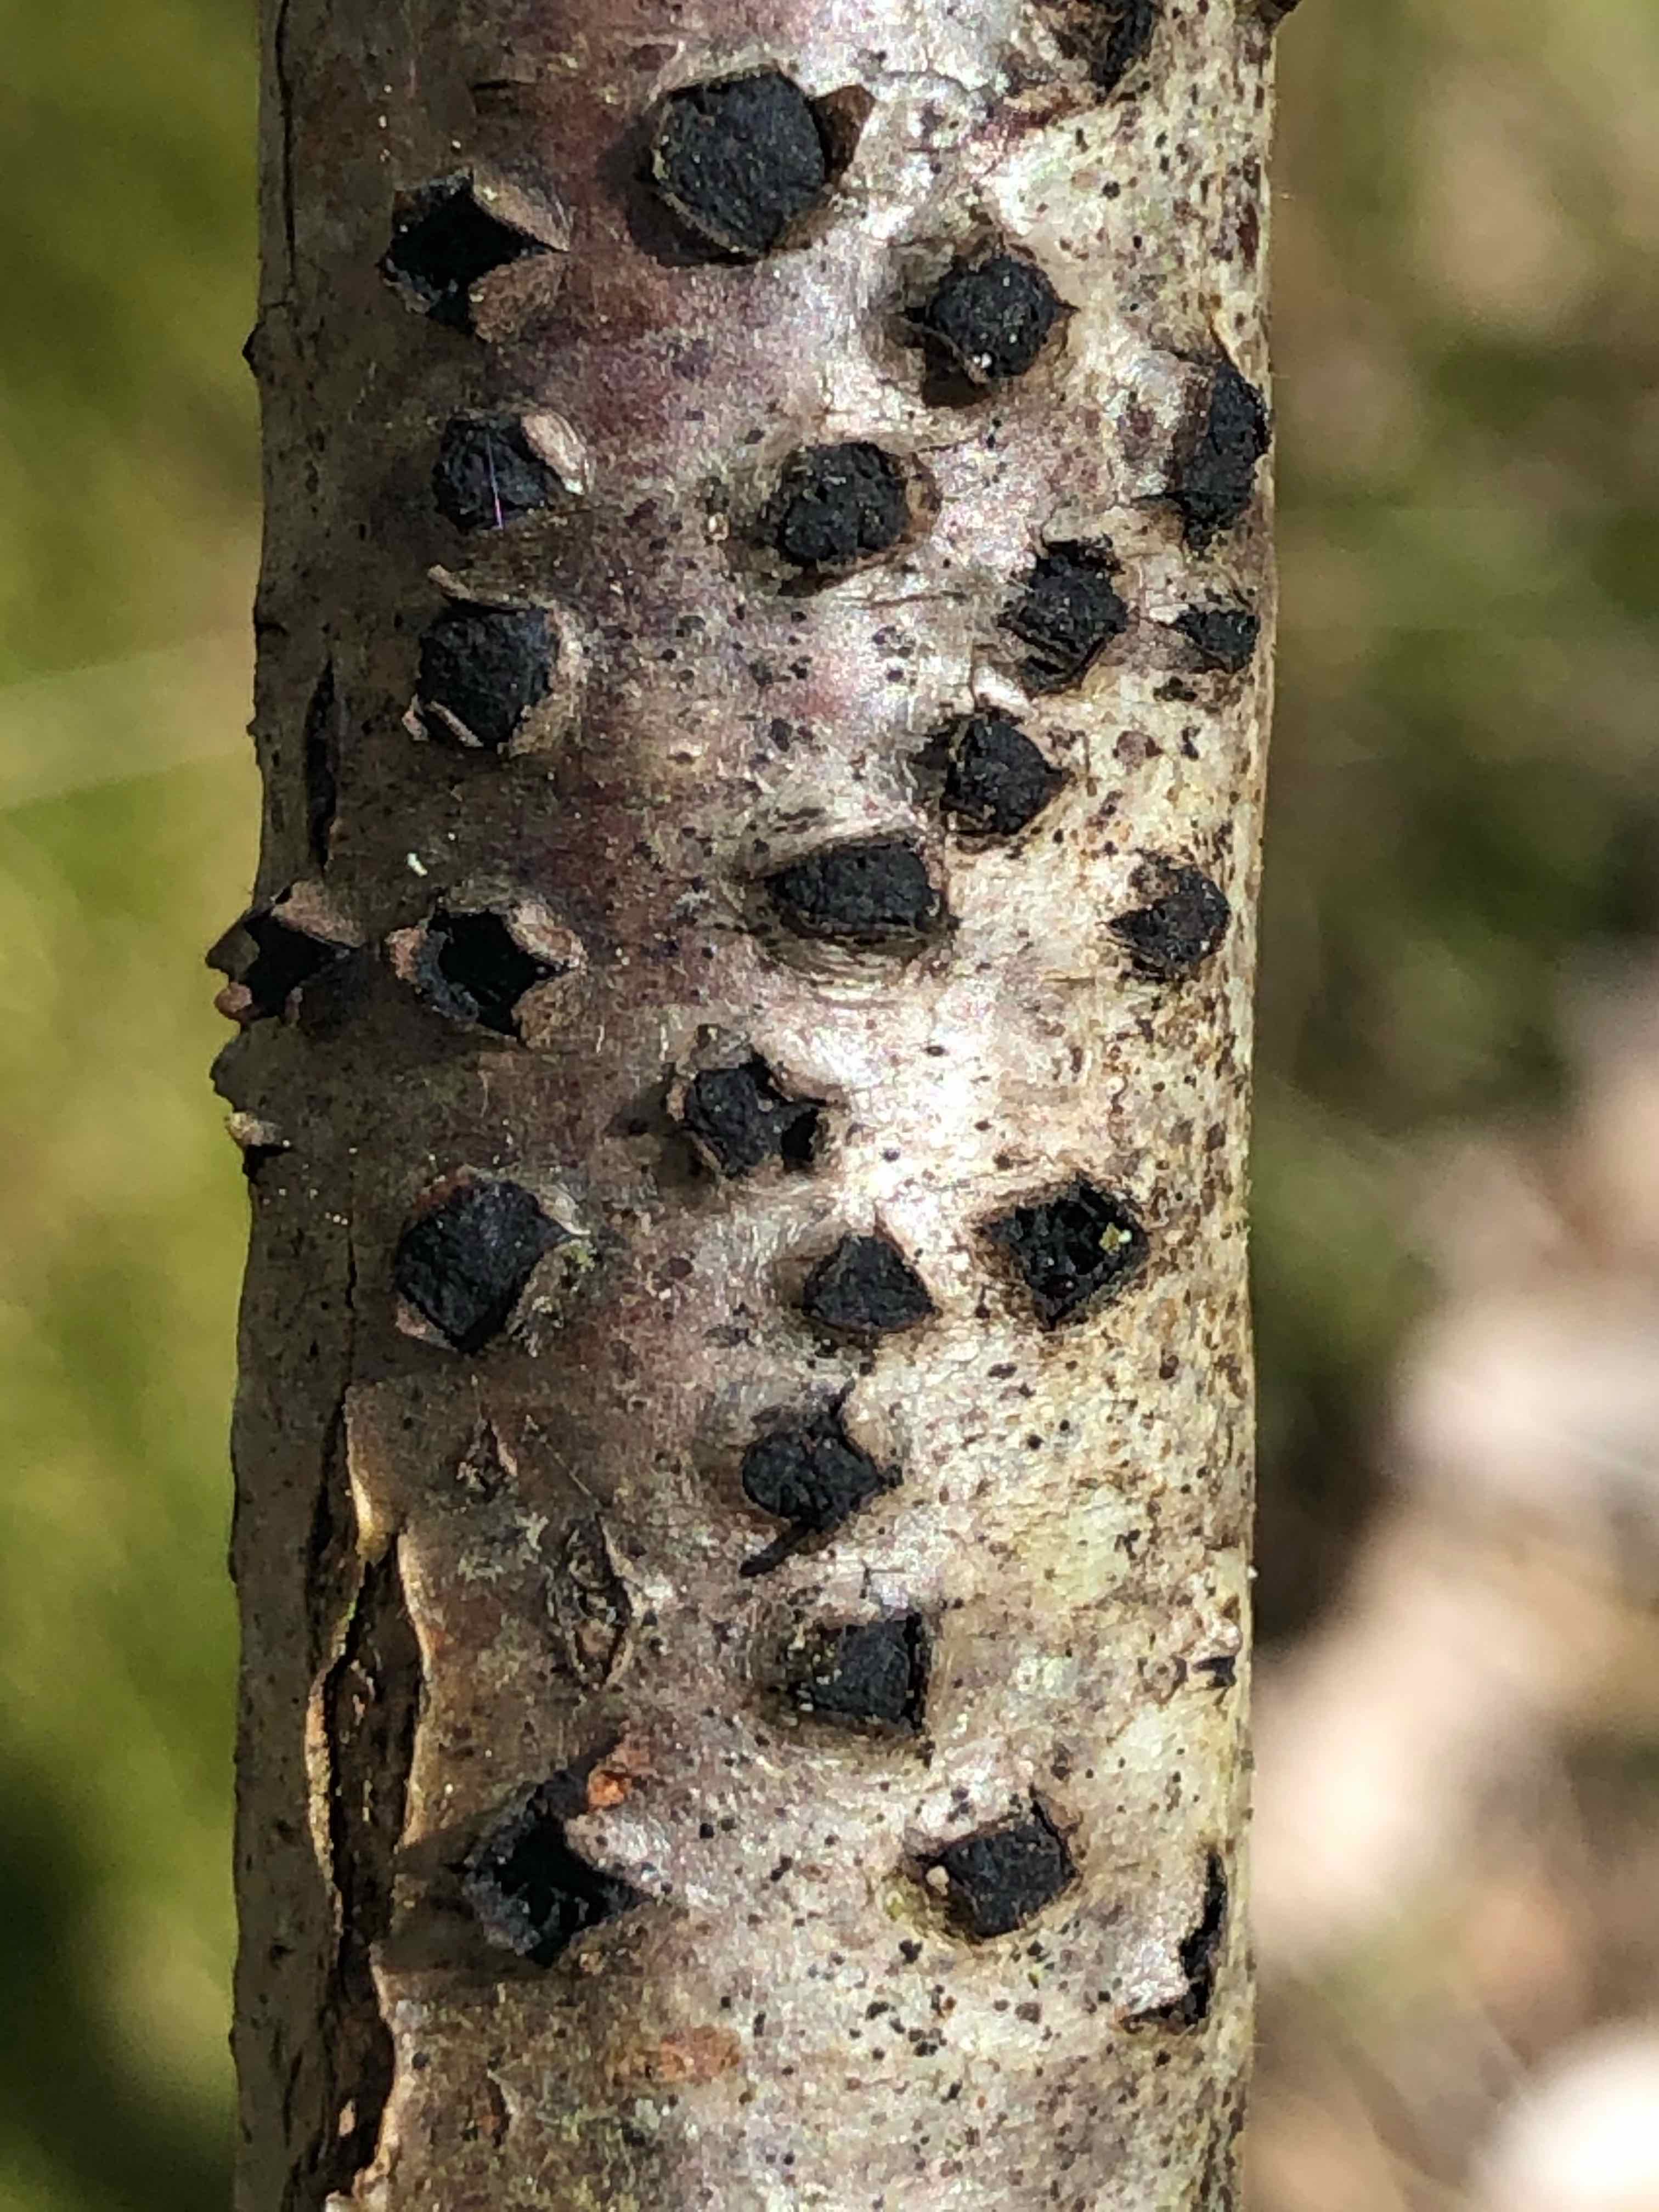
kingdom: Fungi
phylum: Ascomycota
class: Sordariomycetes
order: Xylariales
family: Diatrypaceae
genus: Diatrypella
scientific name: Diatrypella quercina
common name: ege-kulskorpe
